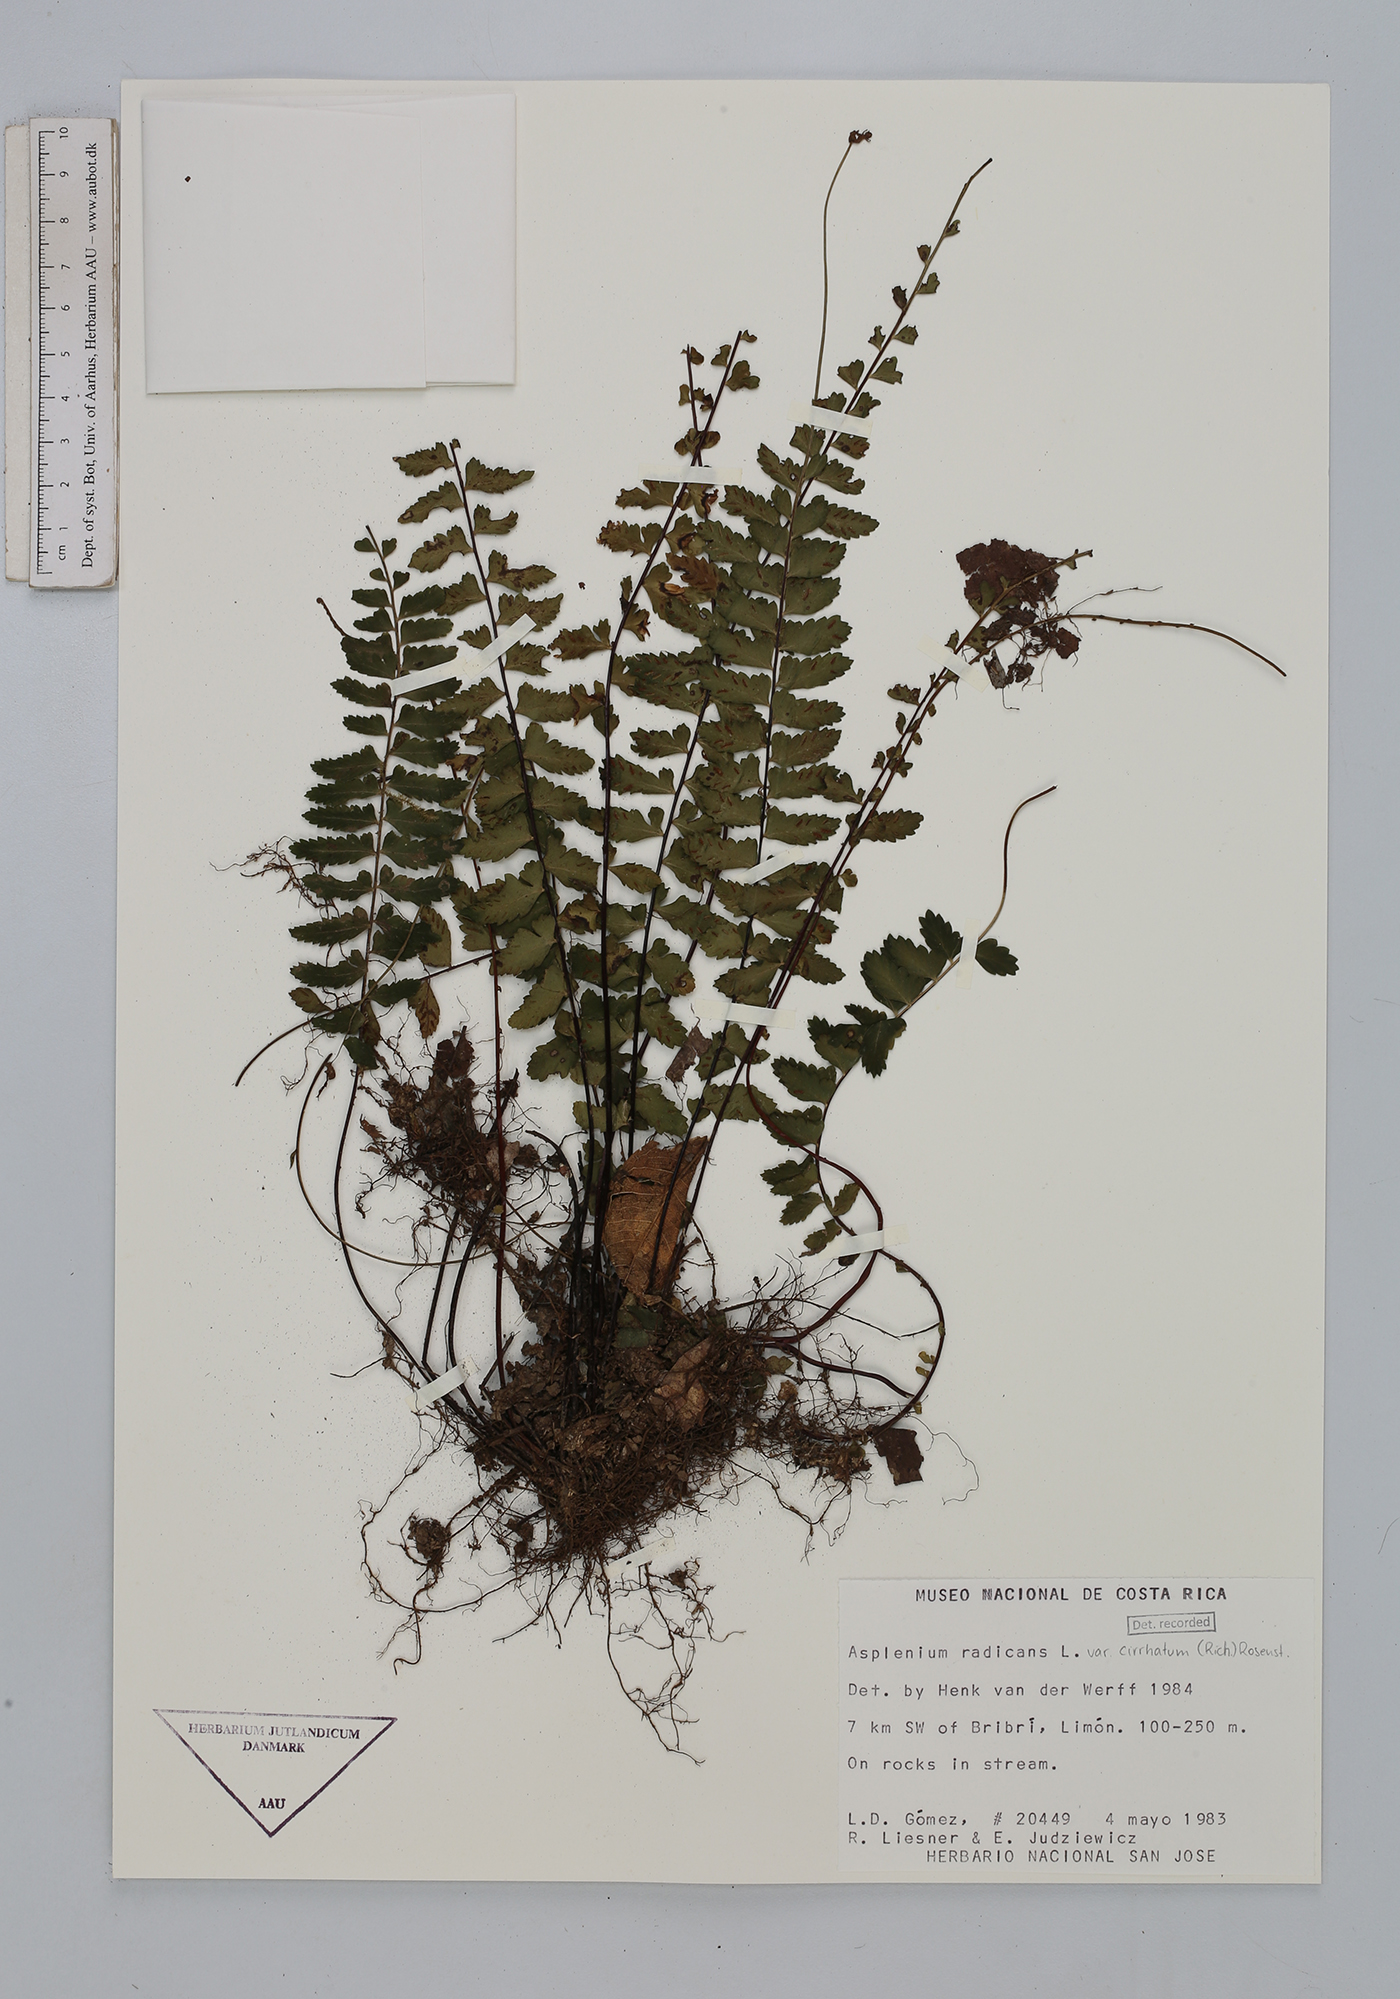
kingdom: Plantae
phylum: Tracheophyta
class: Polypodiopsida
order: Polypodiales
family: Aspleniaceae
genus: Asplenium
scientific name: Asplenium cirrhatum
